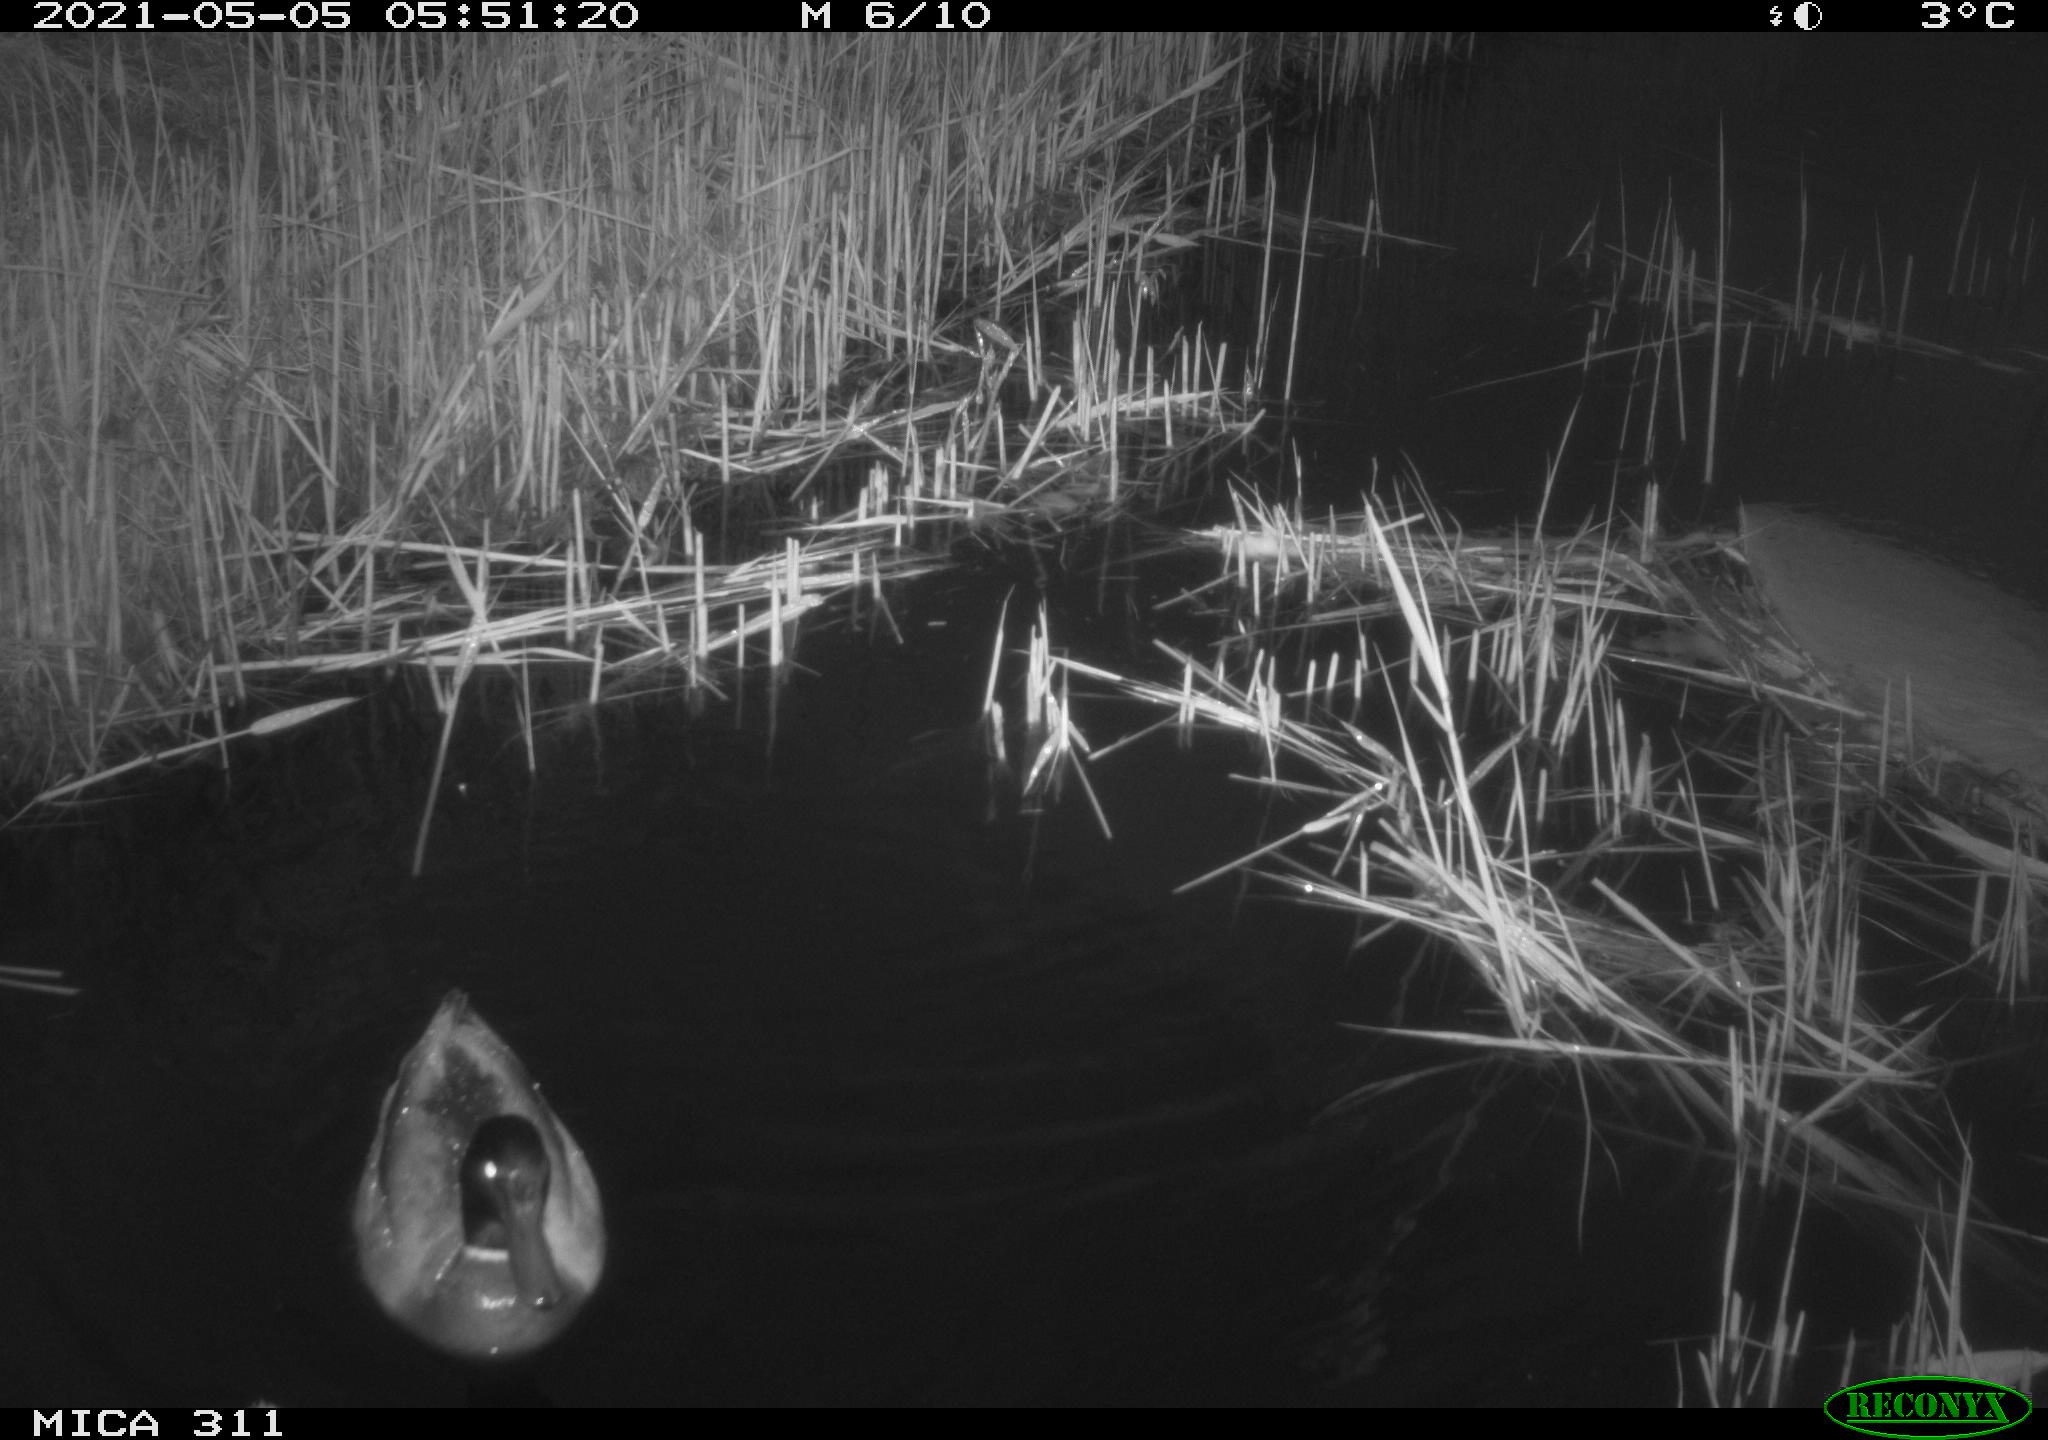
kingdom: Animalia
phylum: Chordata
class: Aves
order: Anseriformes
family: Anatidae
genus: Anas
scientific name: Anas
